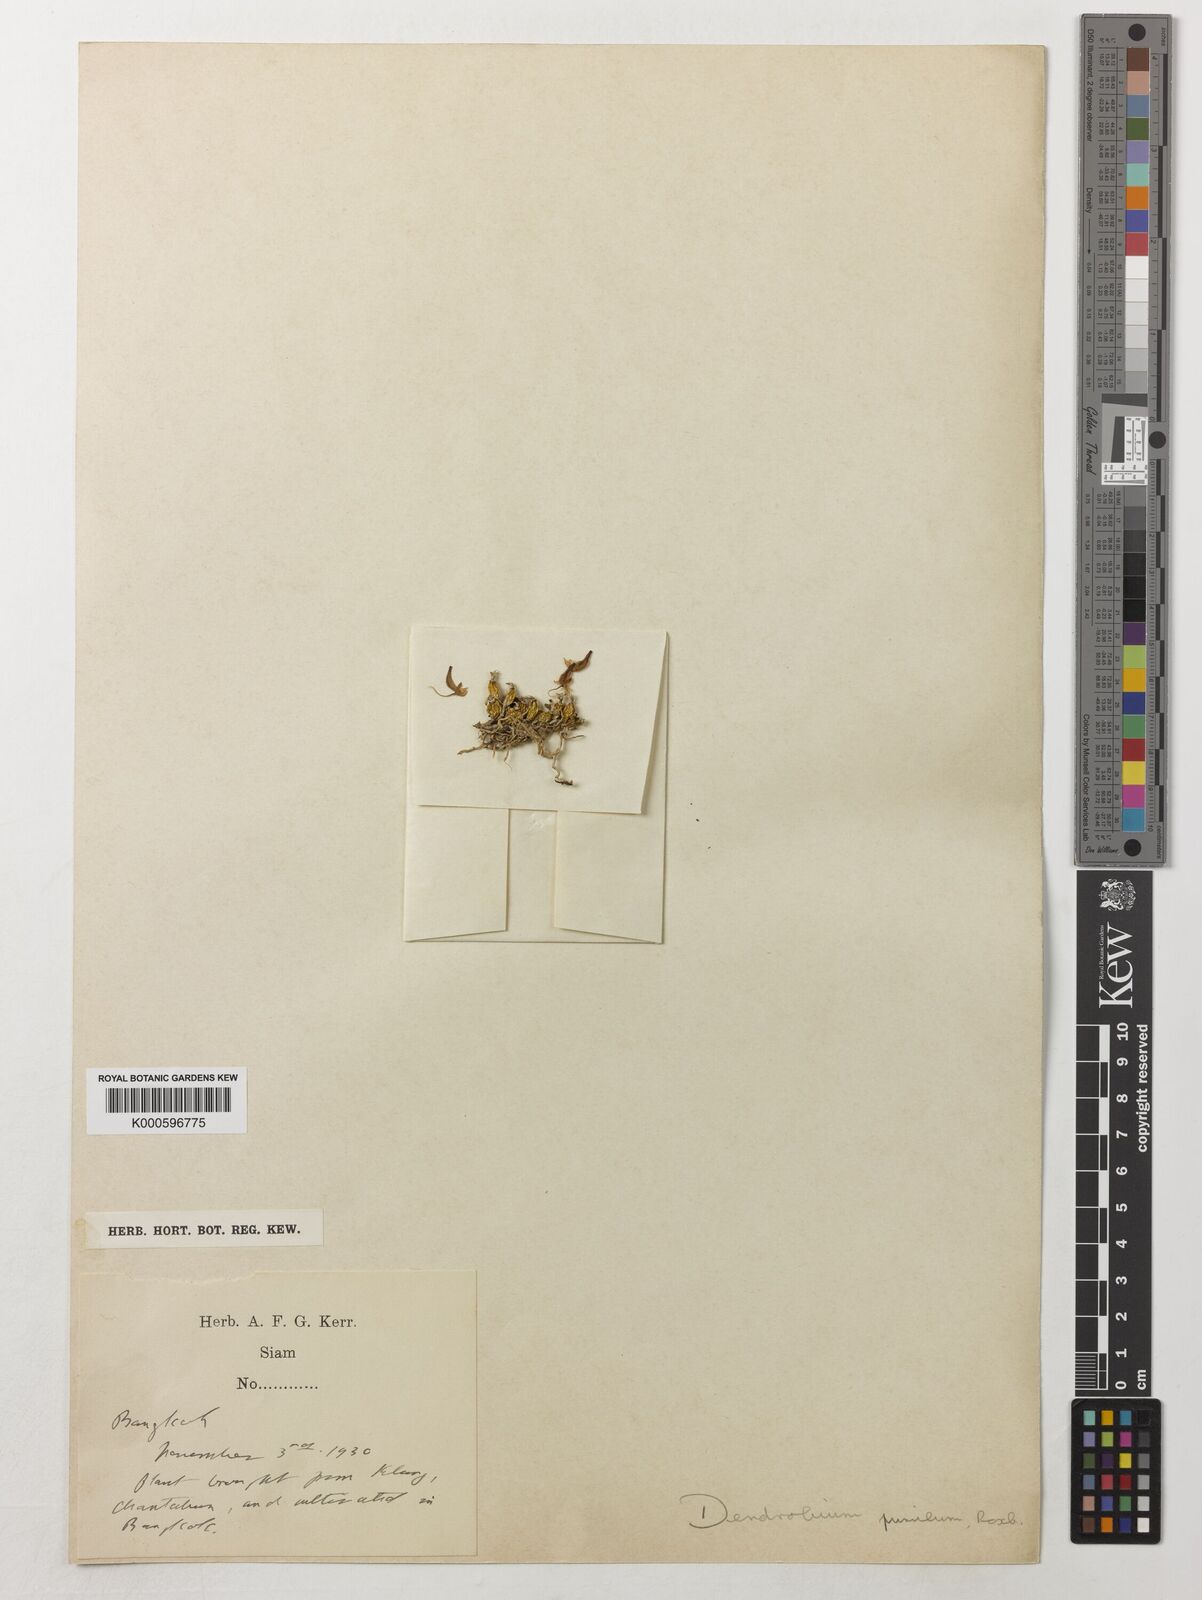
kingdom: Plantae
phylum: Tracheophyta
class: Liliopsida
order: Asparagales
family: Orchidaceae
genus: Dendrobium
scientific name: Dendrobium pachyphyllum
